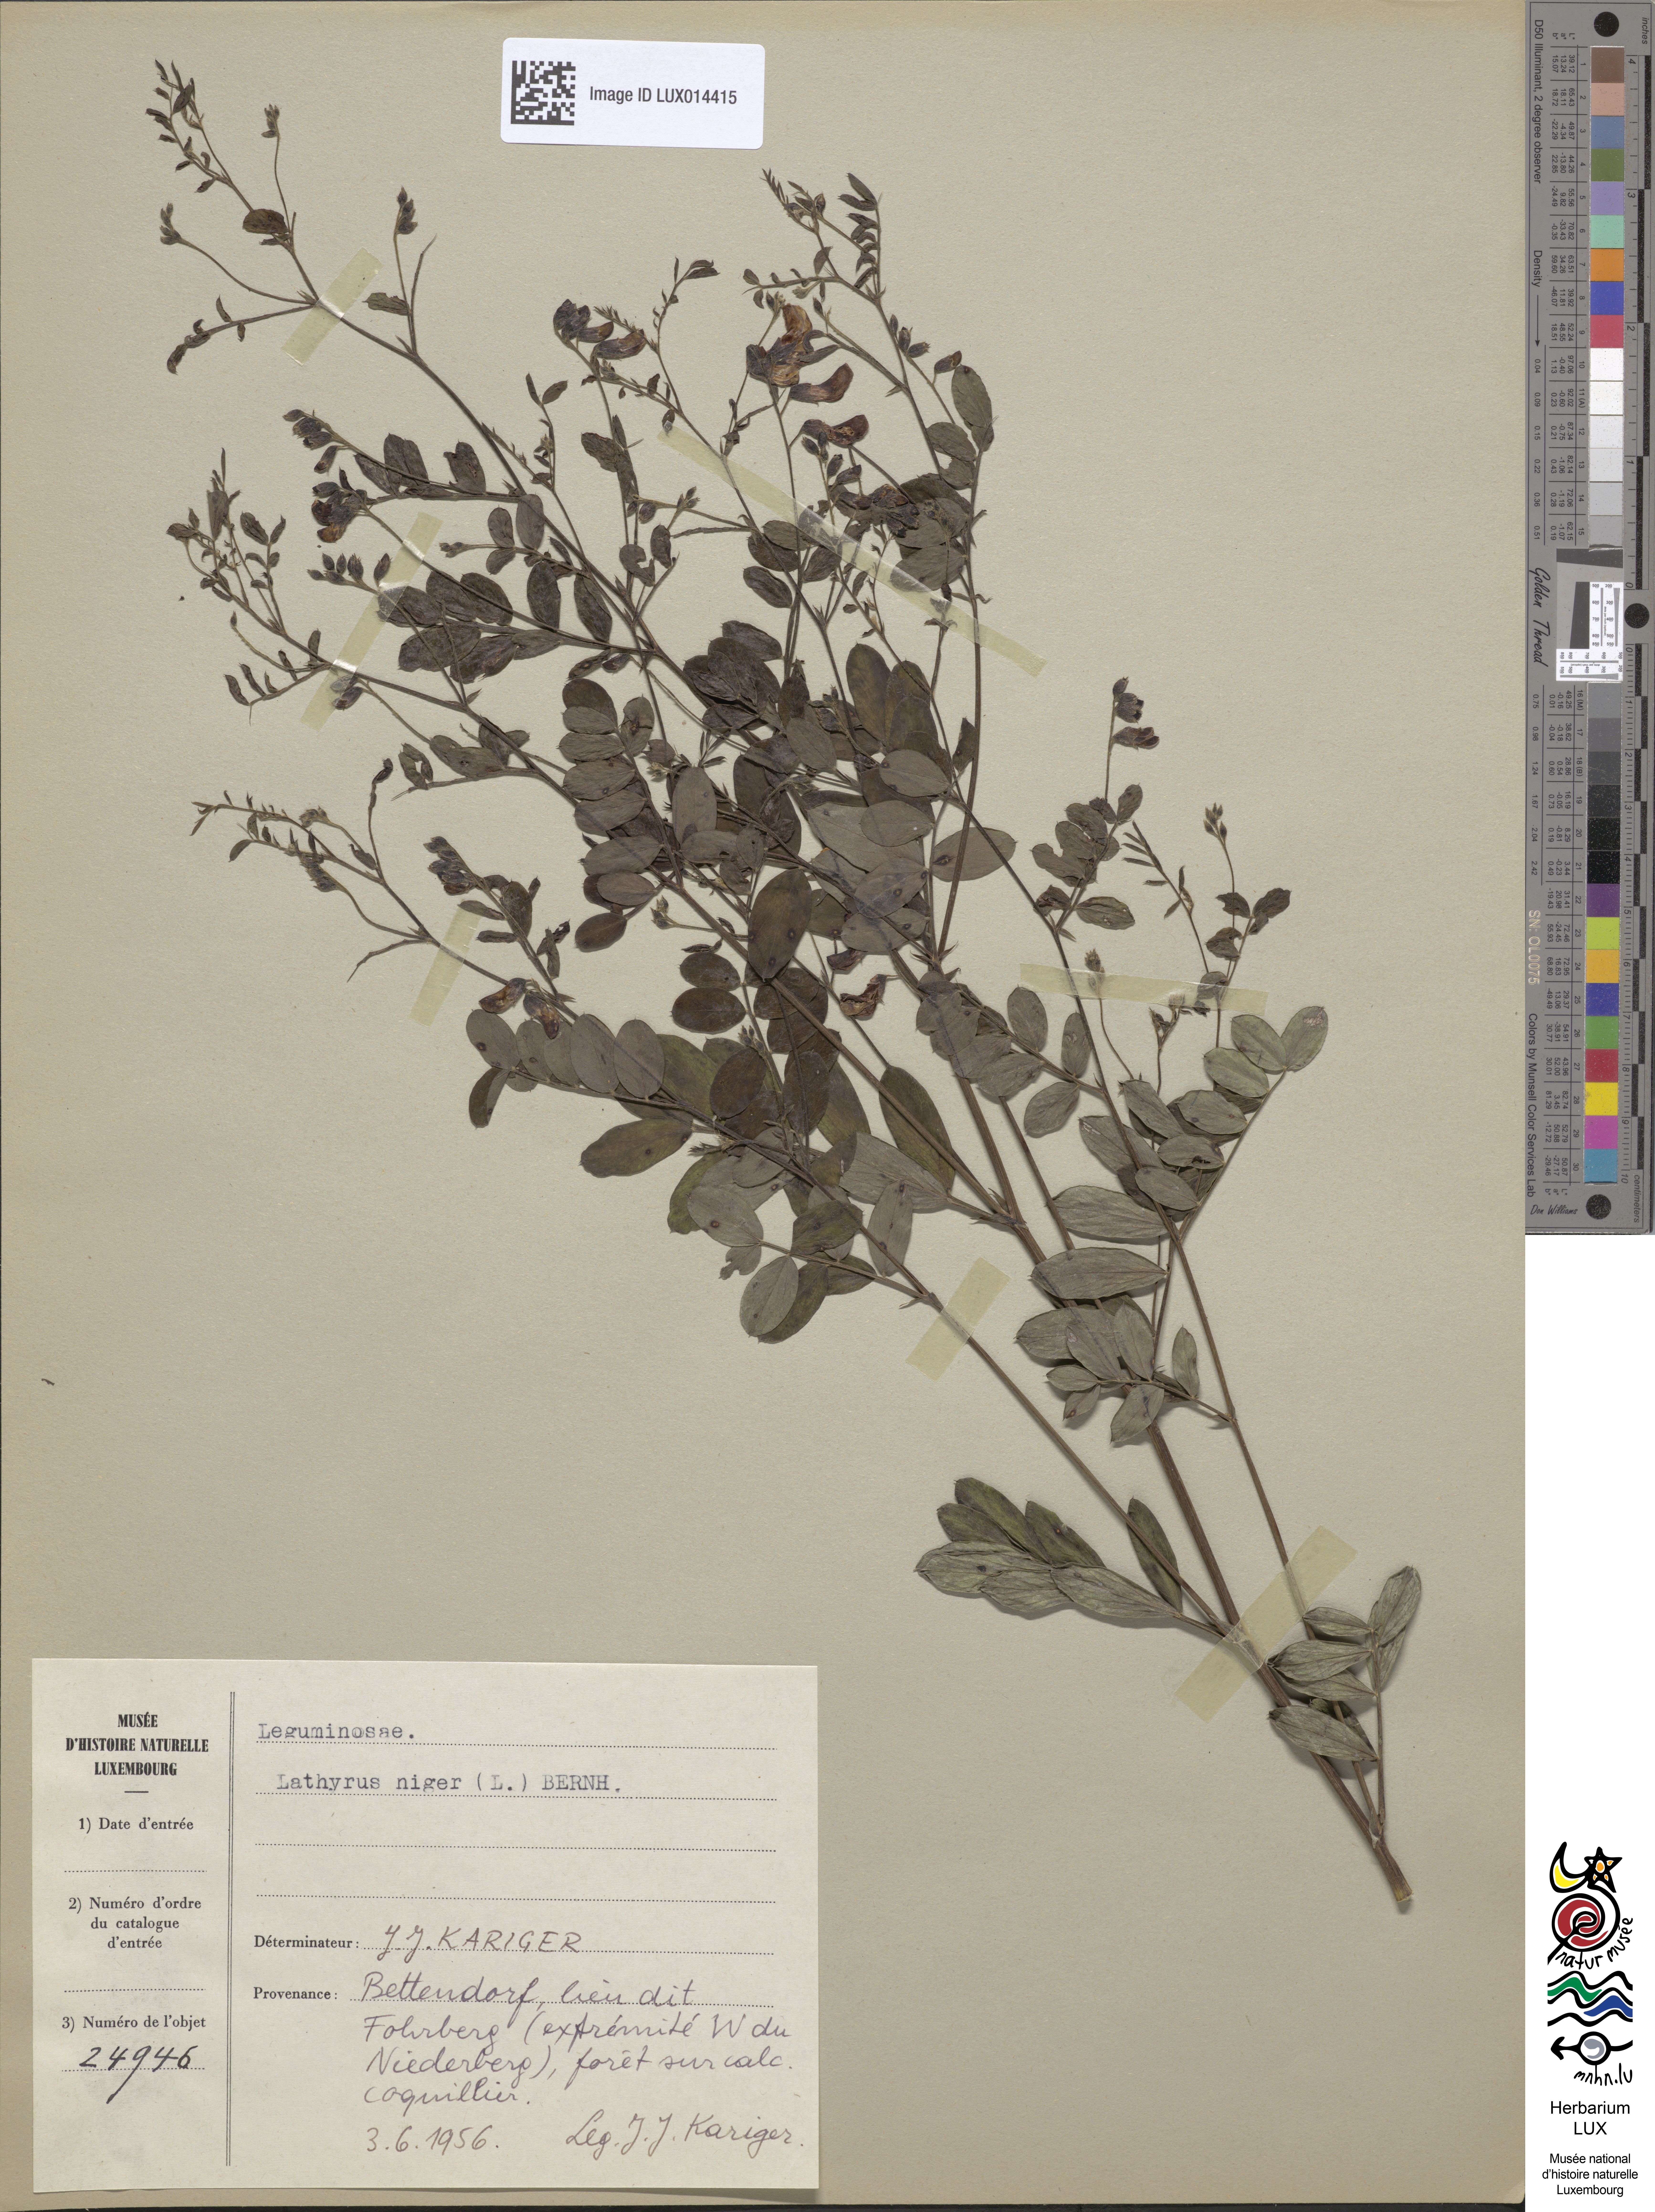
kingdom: Plantae
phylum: Tracheophyta
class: Magnoliopsida
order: Fabales
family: Fabaceae
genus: Lathyrus
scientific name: Lathyrus niger
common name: Black pea
